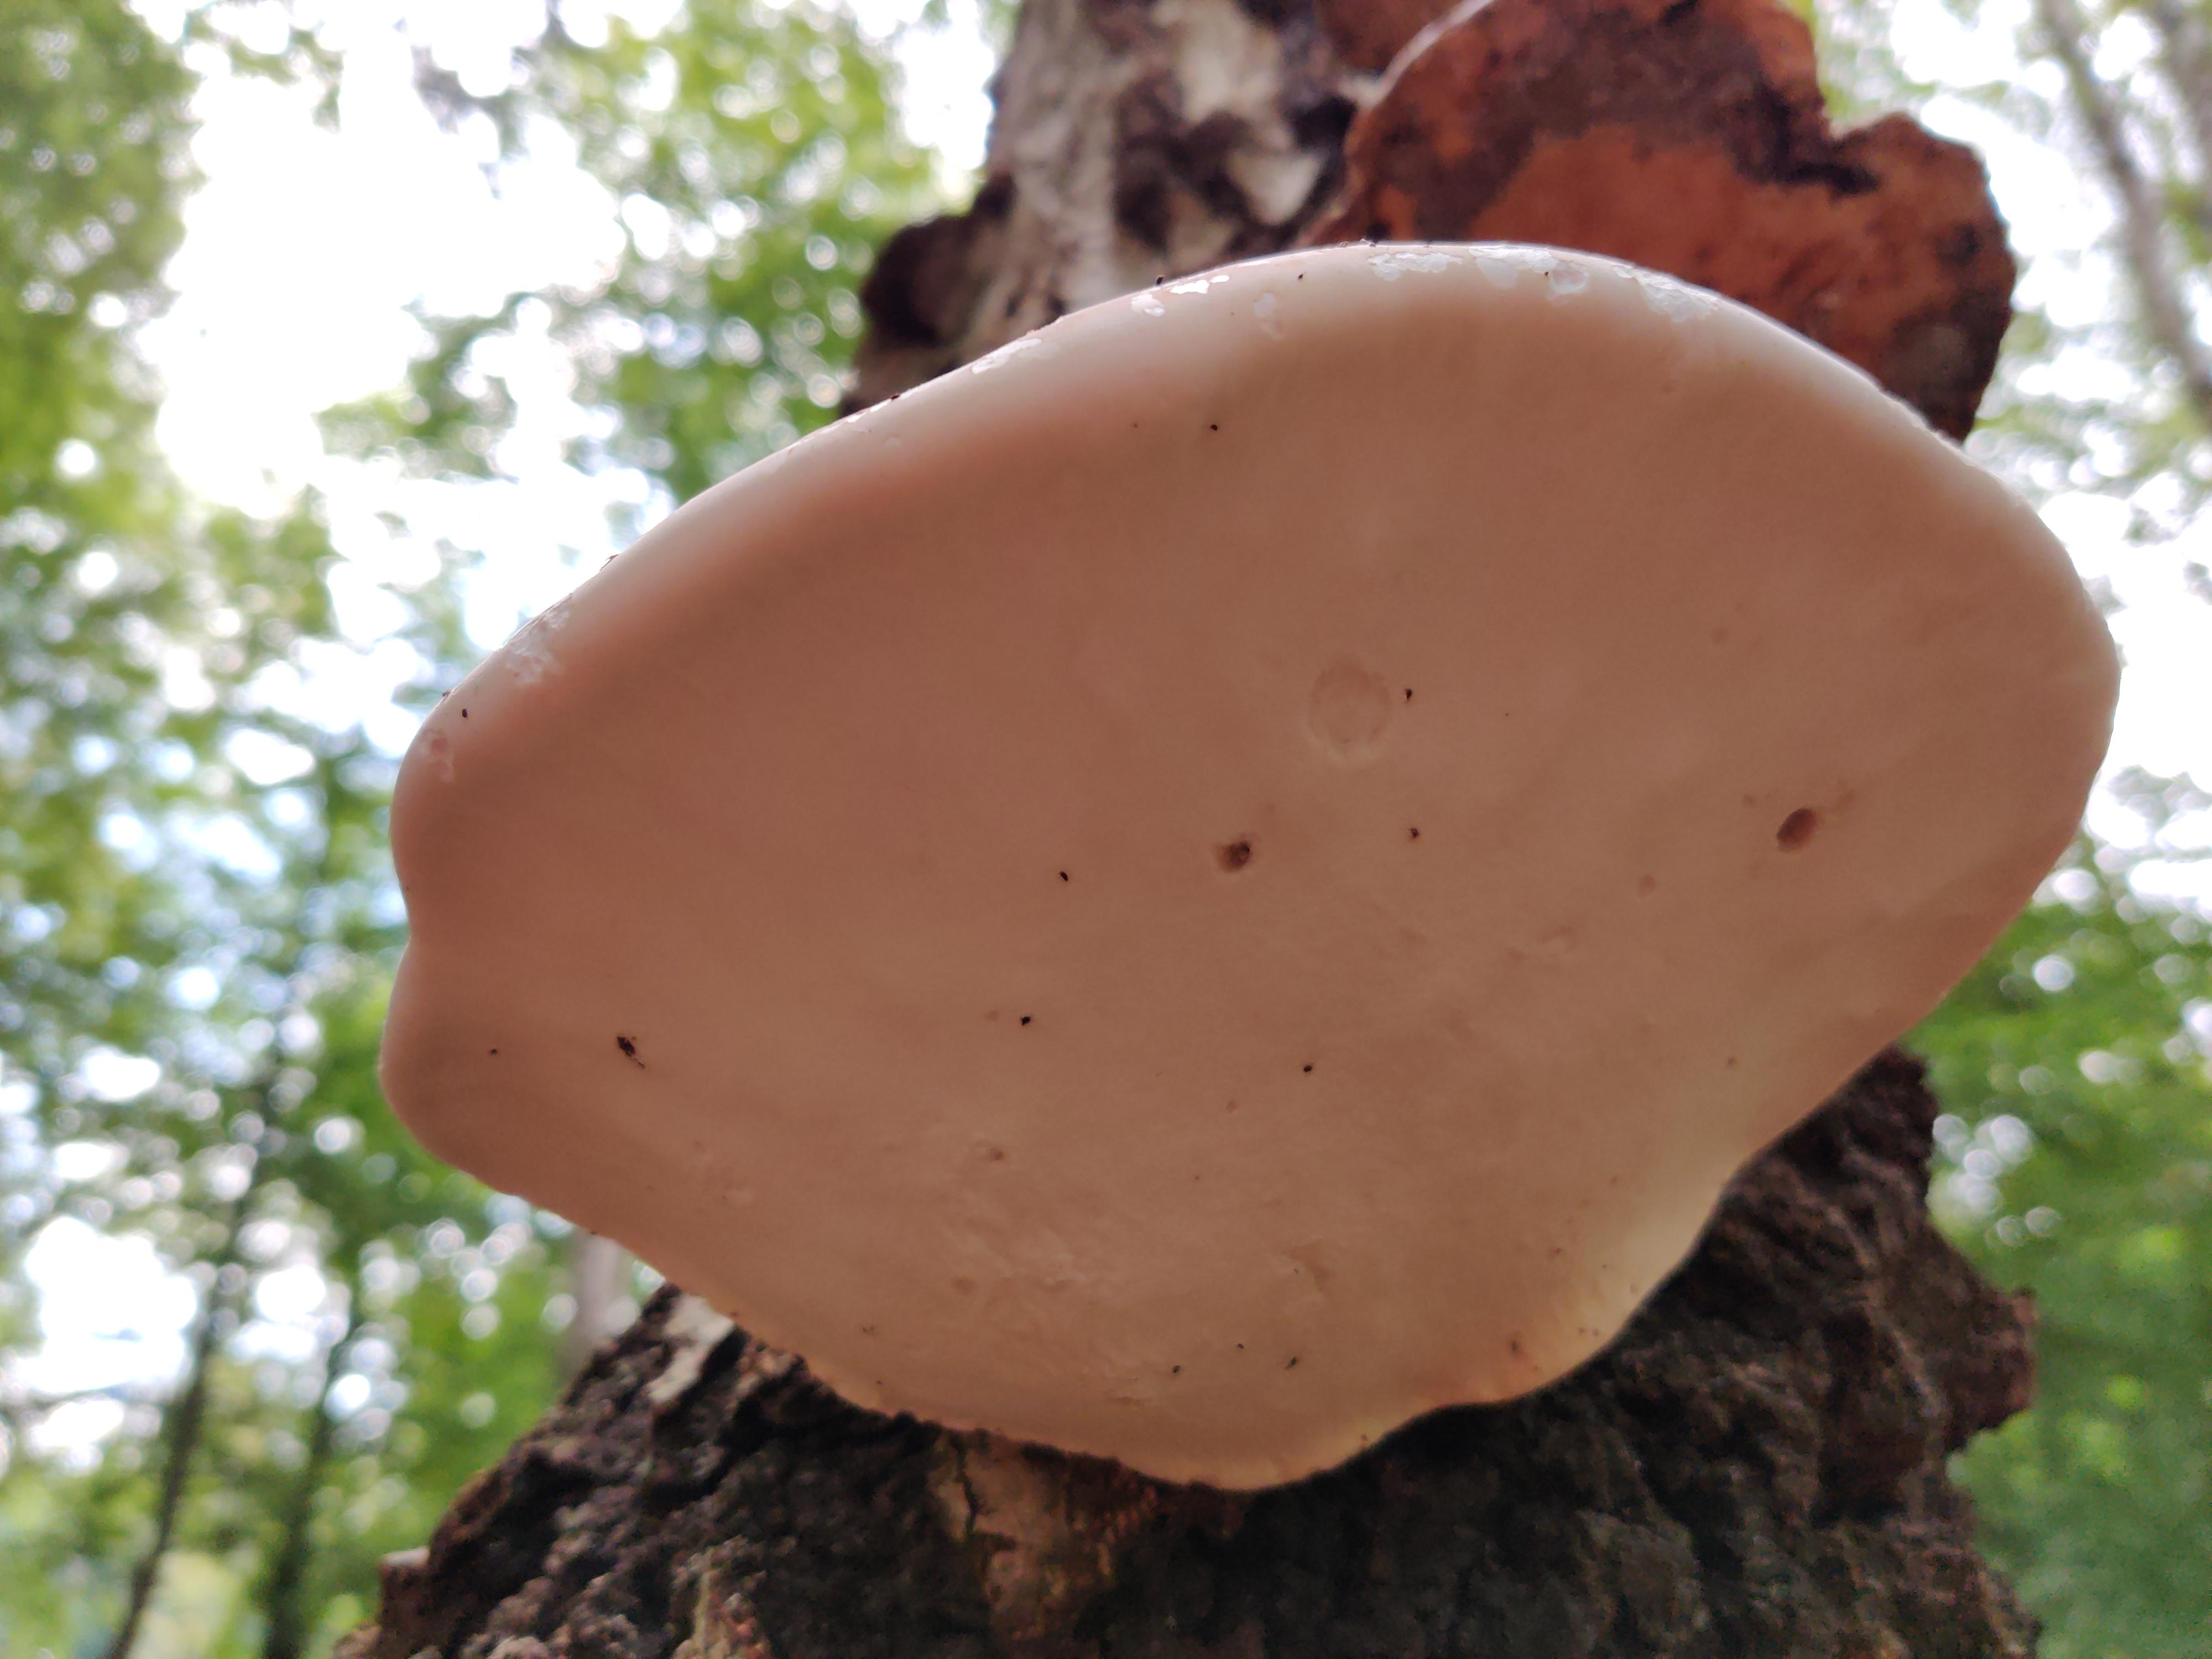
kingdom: Fungi
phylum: Basidiomycota
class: Agaricomycetes
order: Polyporales
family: Fomitopsidaceae
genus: Fomitopsis
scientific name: Fomitopsis betulina
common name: birkeporesvamp
